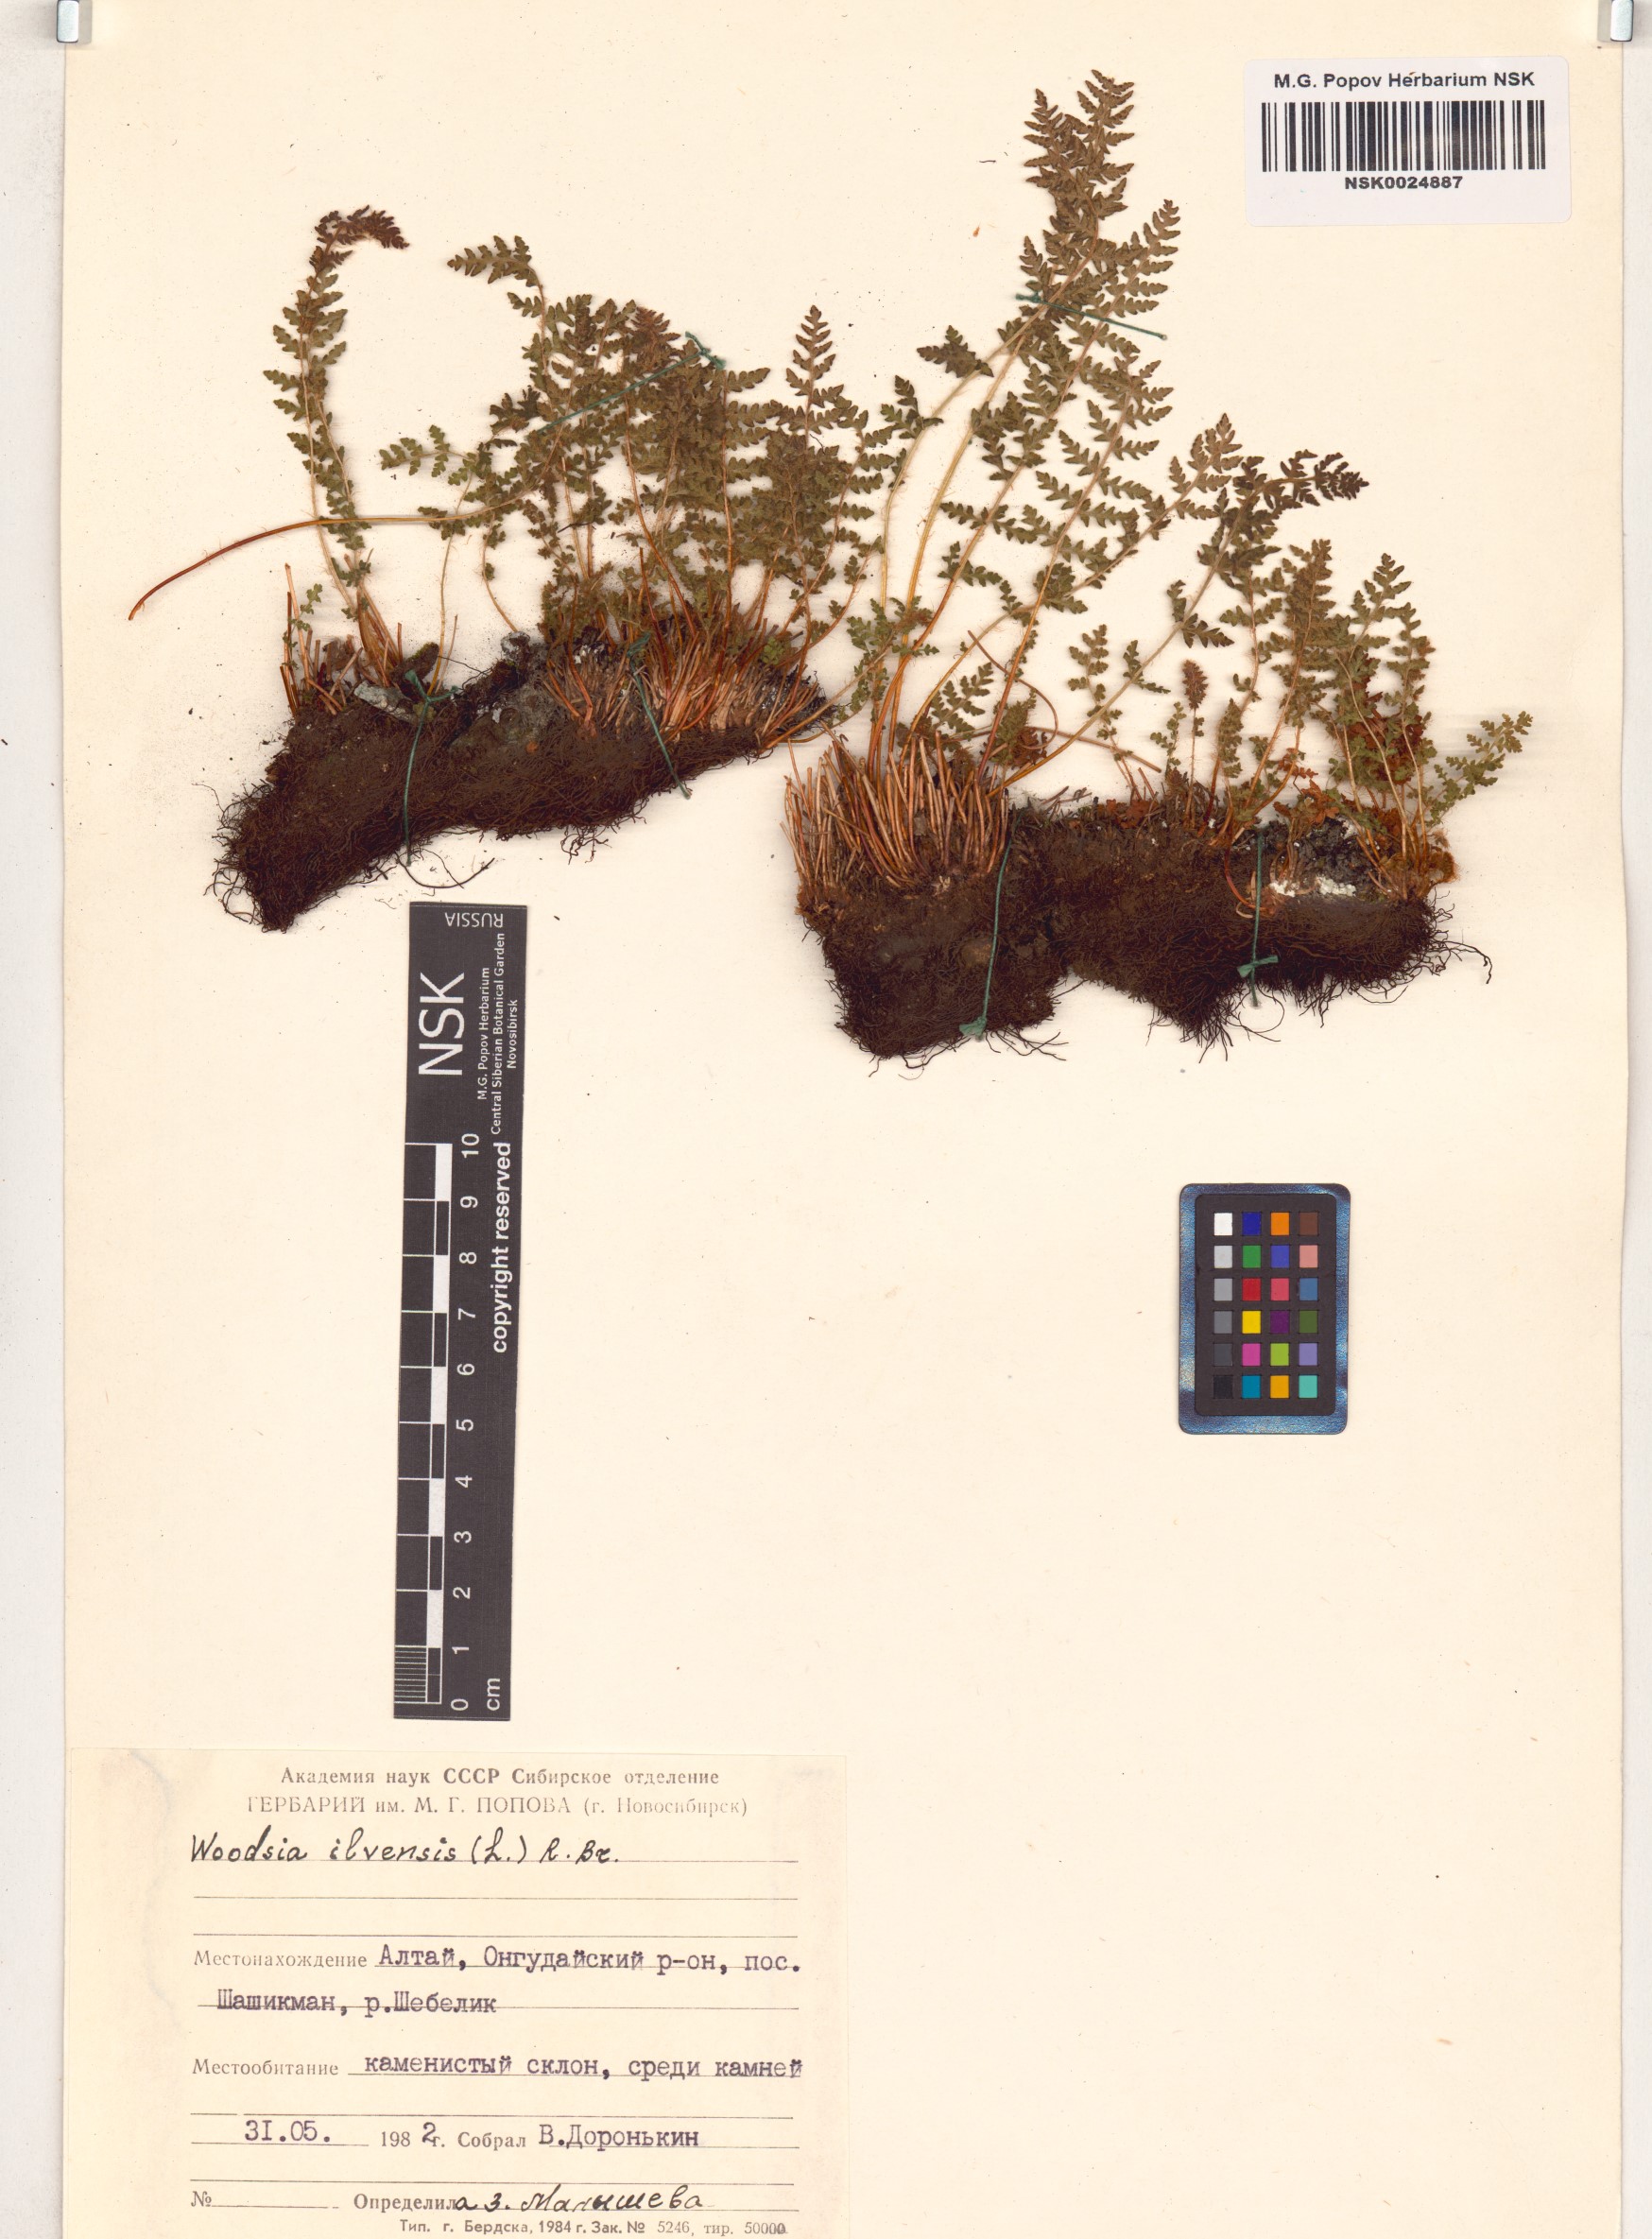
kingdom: Plantae
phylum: Tracheophyta
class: Polypodiopsida
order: Polypodiales
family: Woodsiaceae
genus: Woodsia
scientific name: Woodsia ilvensis
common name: Fragrant woodsia
